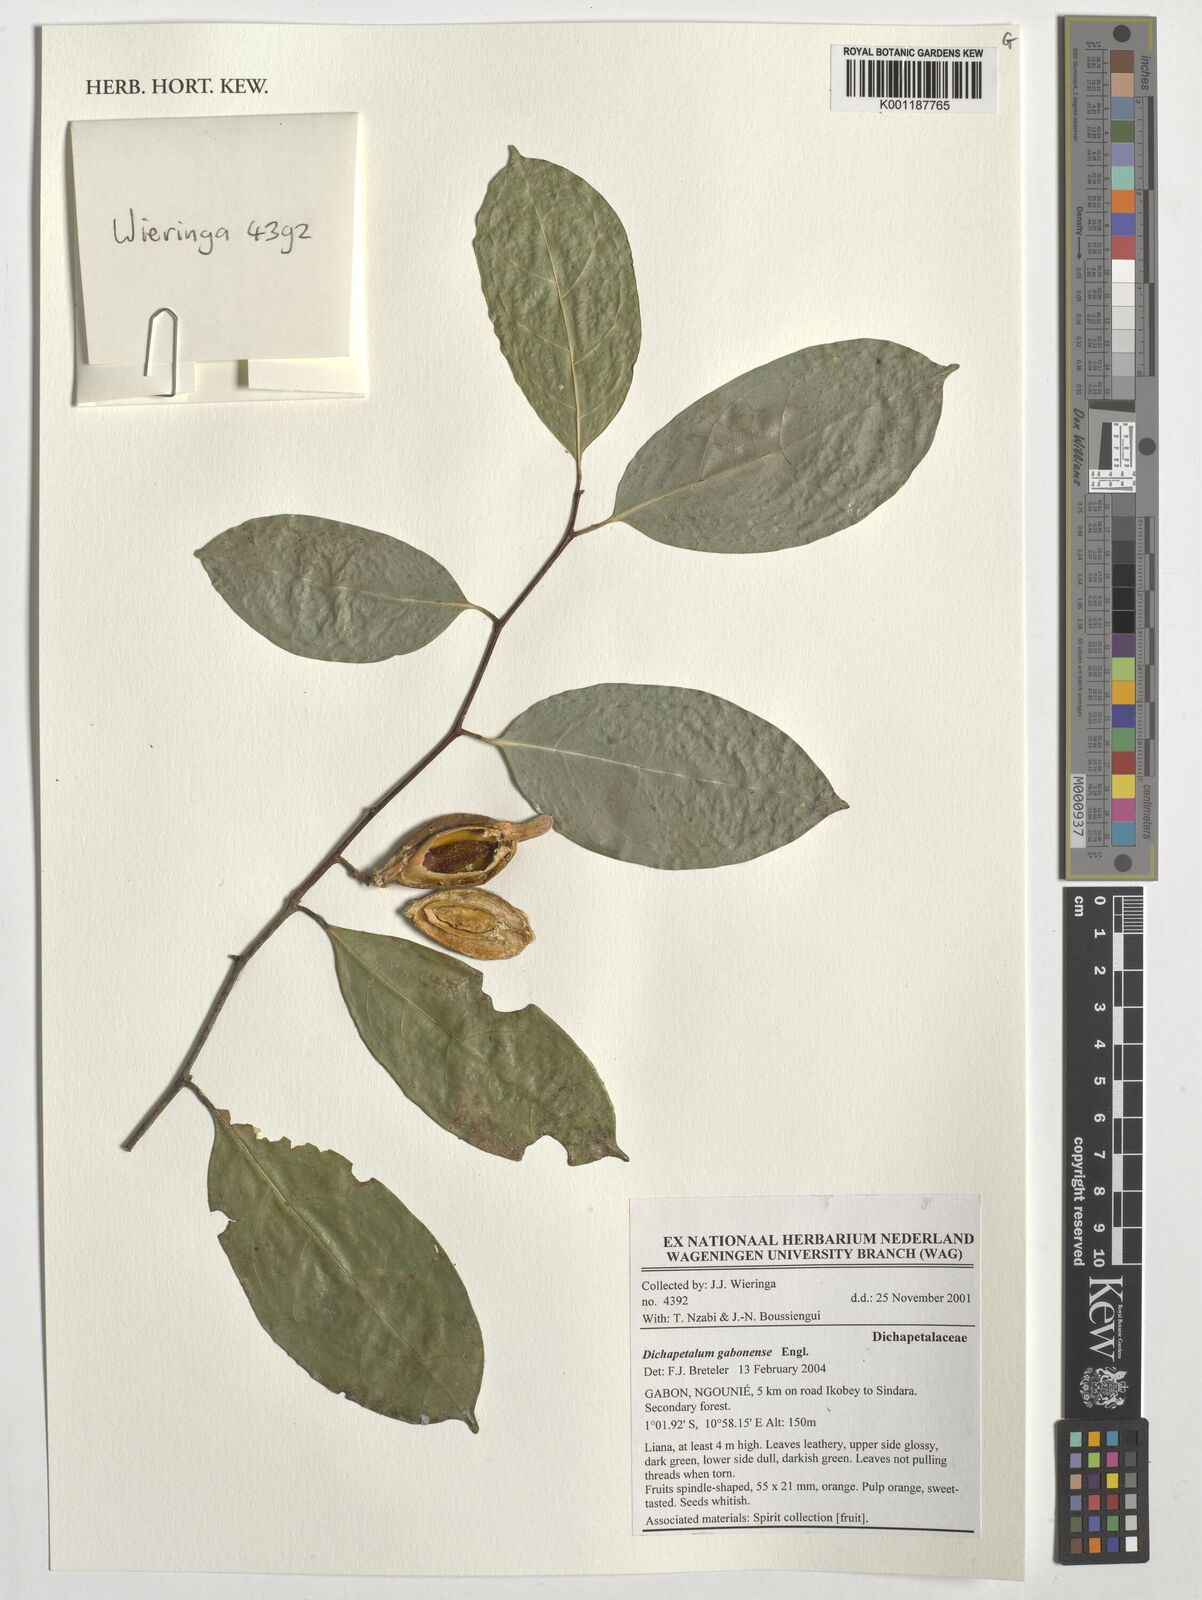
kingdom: Plantae
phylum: Tracheophyta
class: Magnoliopsida
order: Malpighiales
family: Dichapetalaceae
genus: Dichapetalum
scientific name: Dichapetalum gabonense
